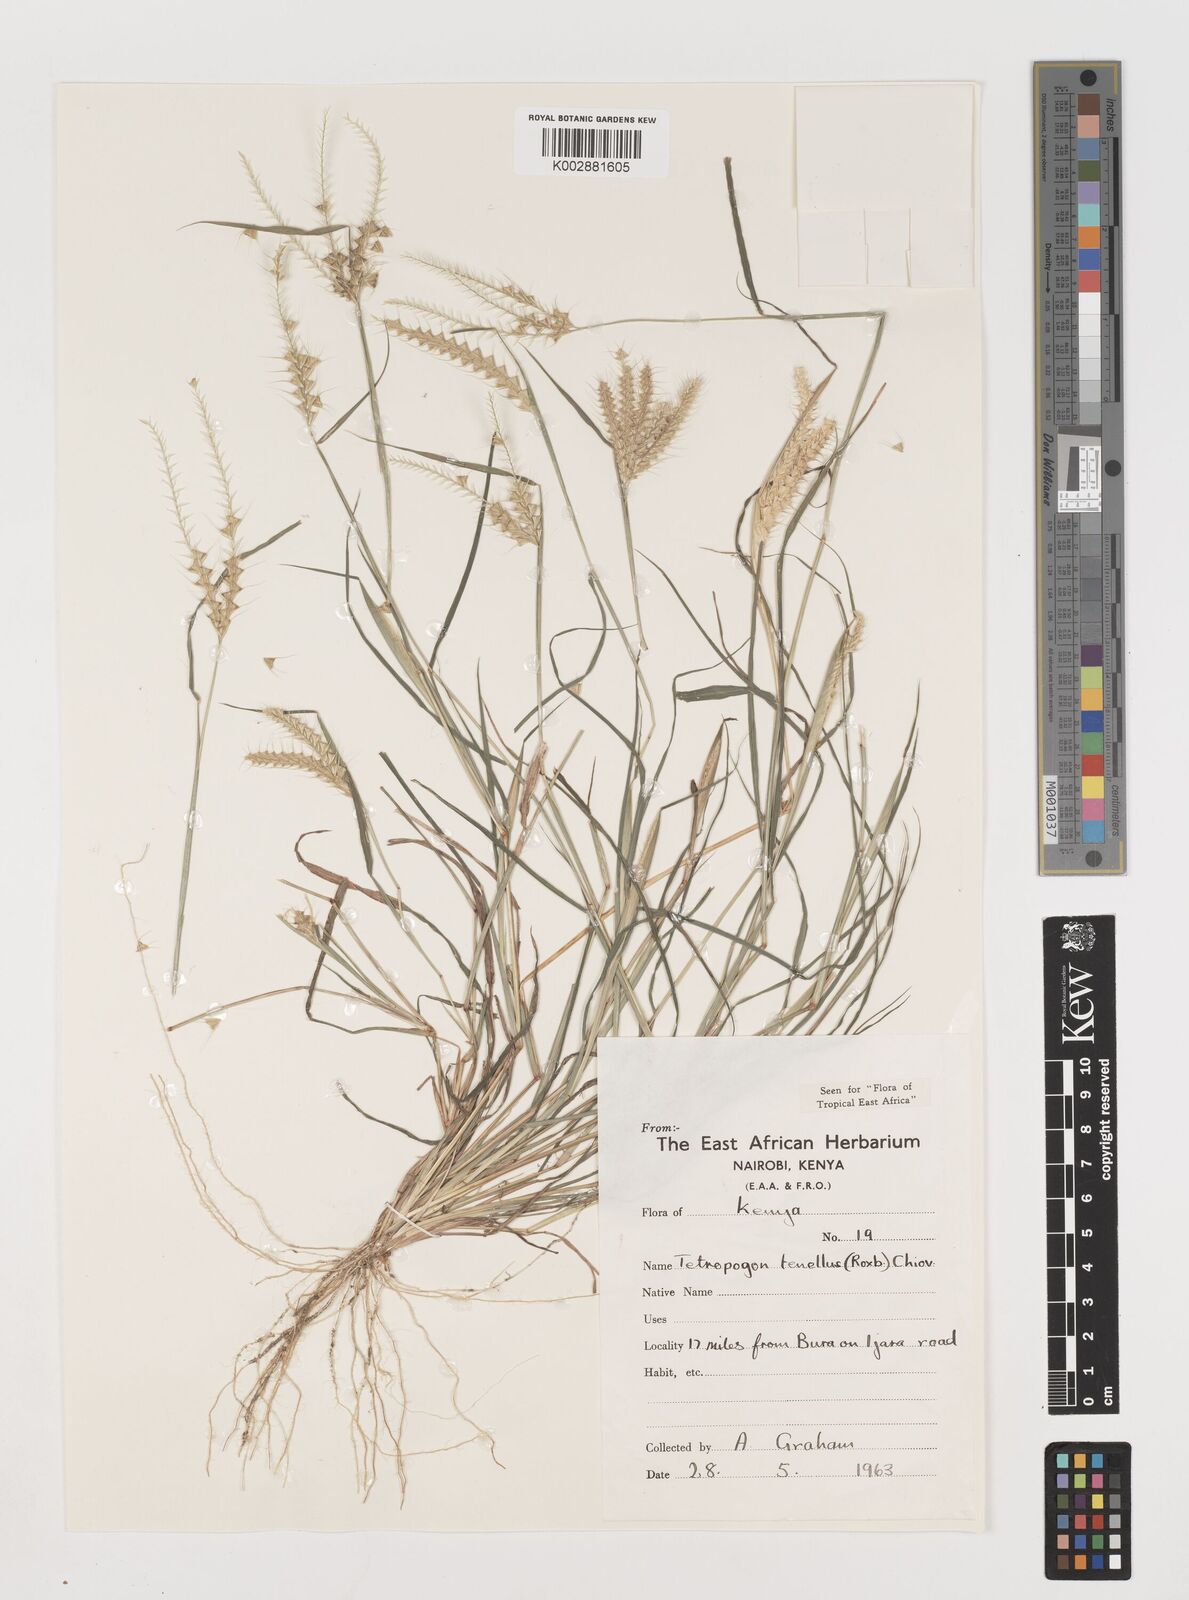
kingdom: Plantae
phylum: Tracheophyta
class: Liliopsida
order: Poales
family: Poaceae
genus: Tetrapogon
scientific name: Tetrapogon tenellus
